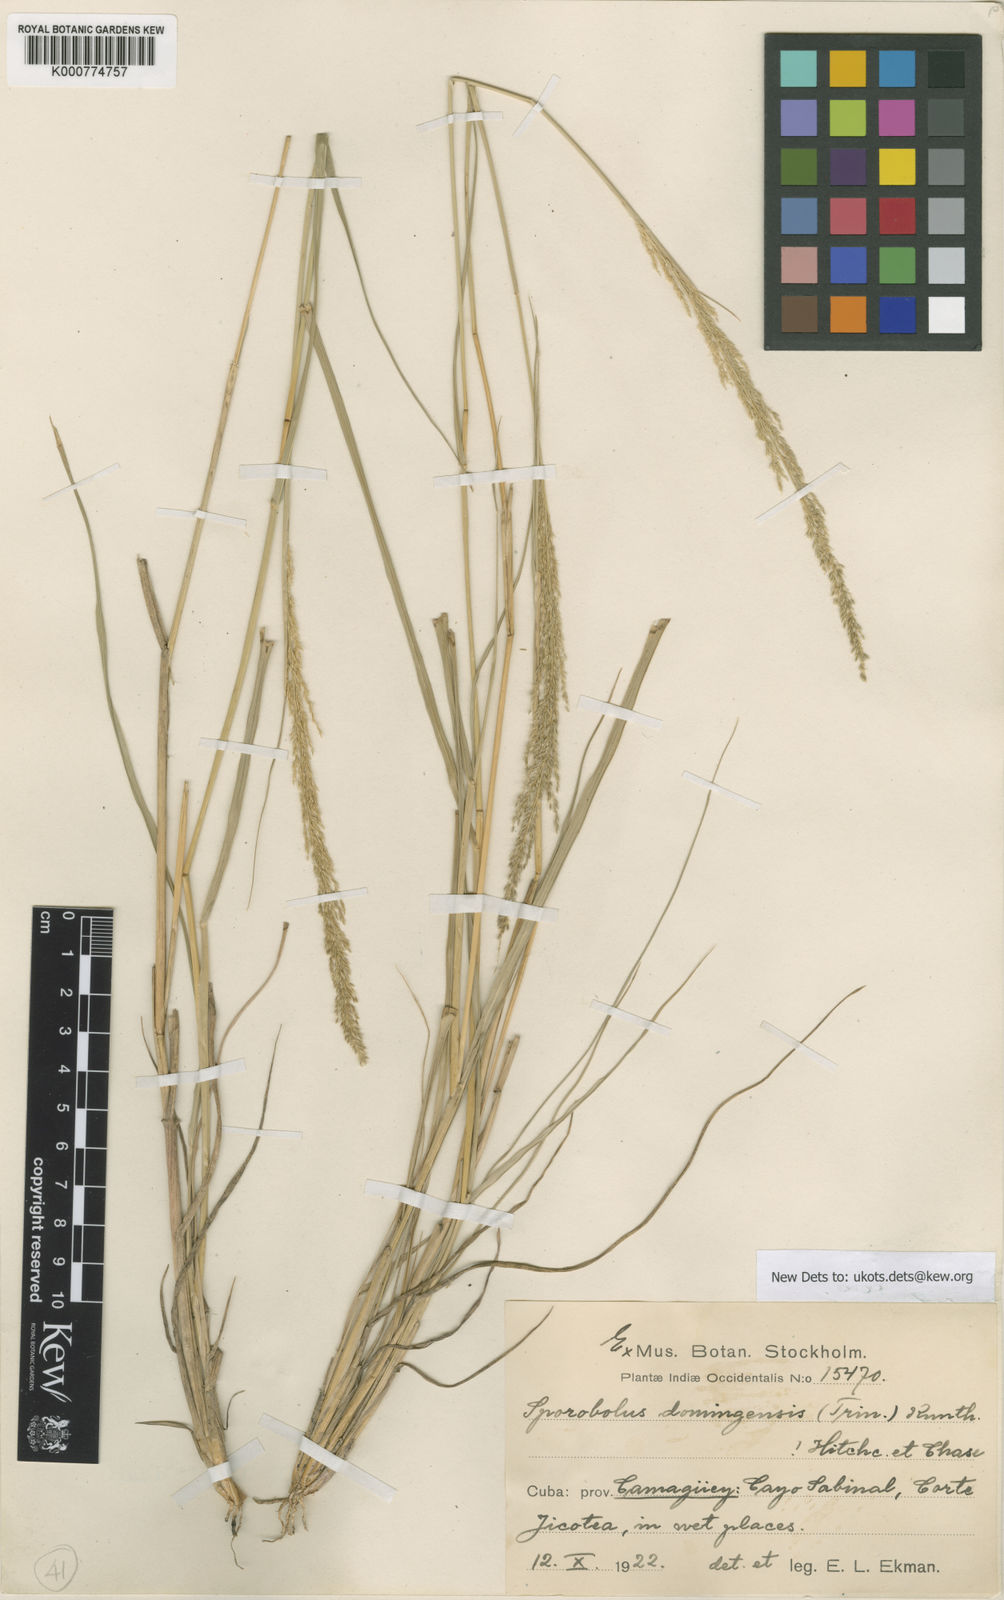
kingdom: Plantae
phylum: Tracheophyta
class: Liliopsida
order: Poales
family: Poaceae
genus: Sporobolus
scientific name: Sporobolus domingensis
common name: Coral dropseed
